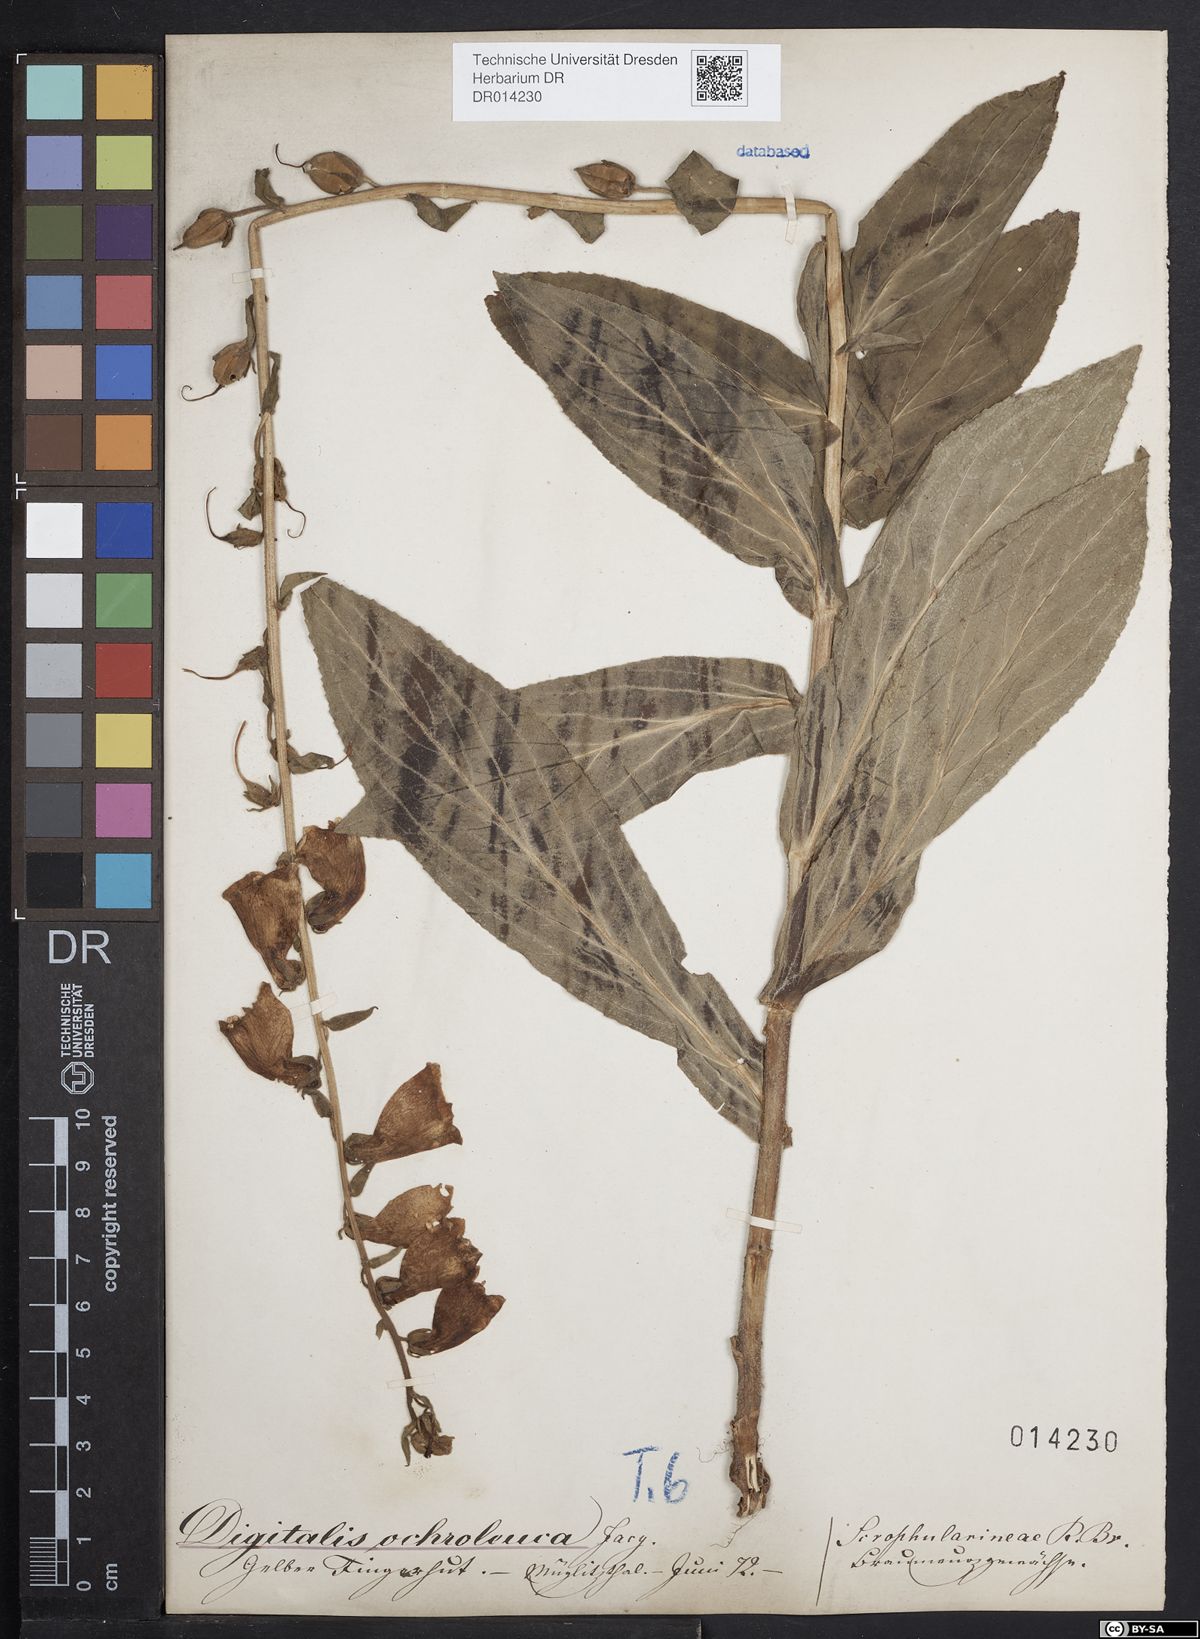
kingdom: Plantae
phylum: Tracheophyta
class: Magnoliopsida
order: Lamiales
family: Plantaginaceae
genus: Digitalis
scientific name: Digitalis grandiflora
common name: Yellow foxglove
